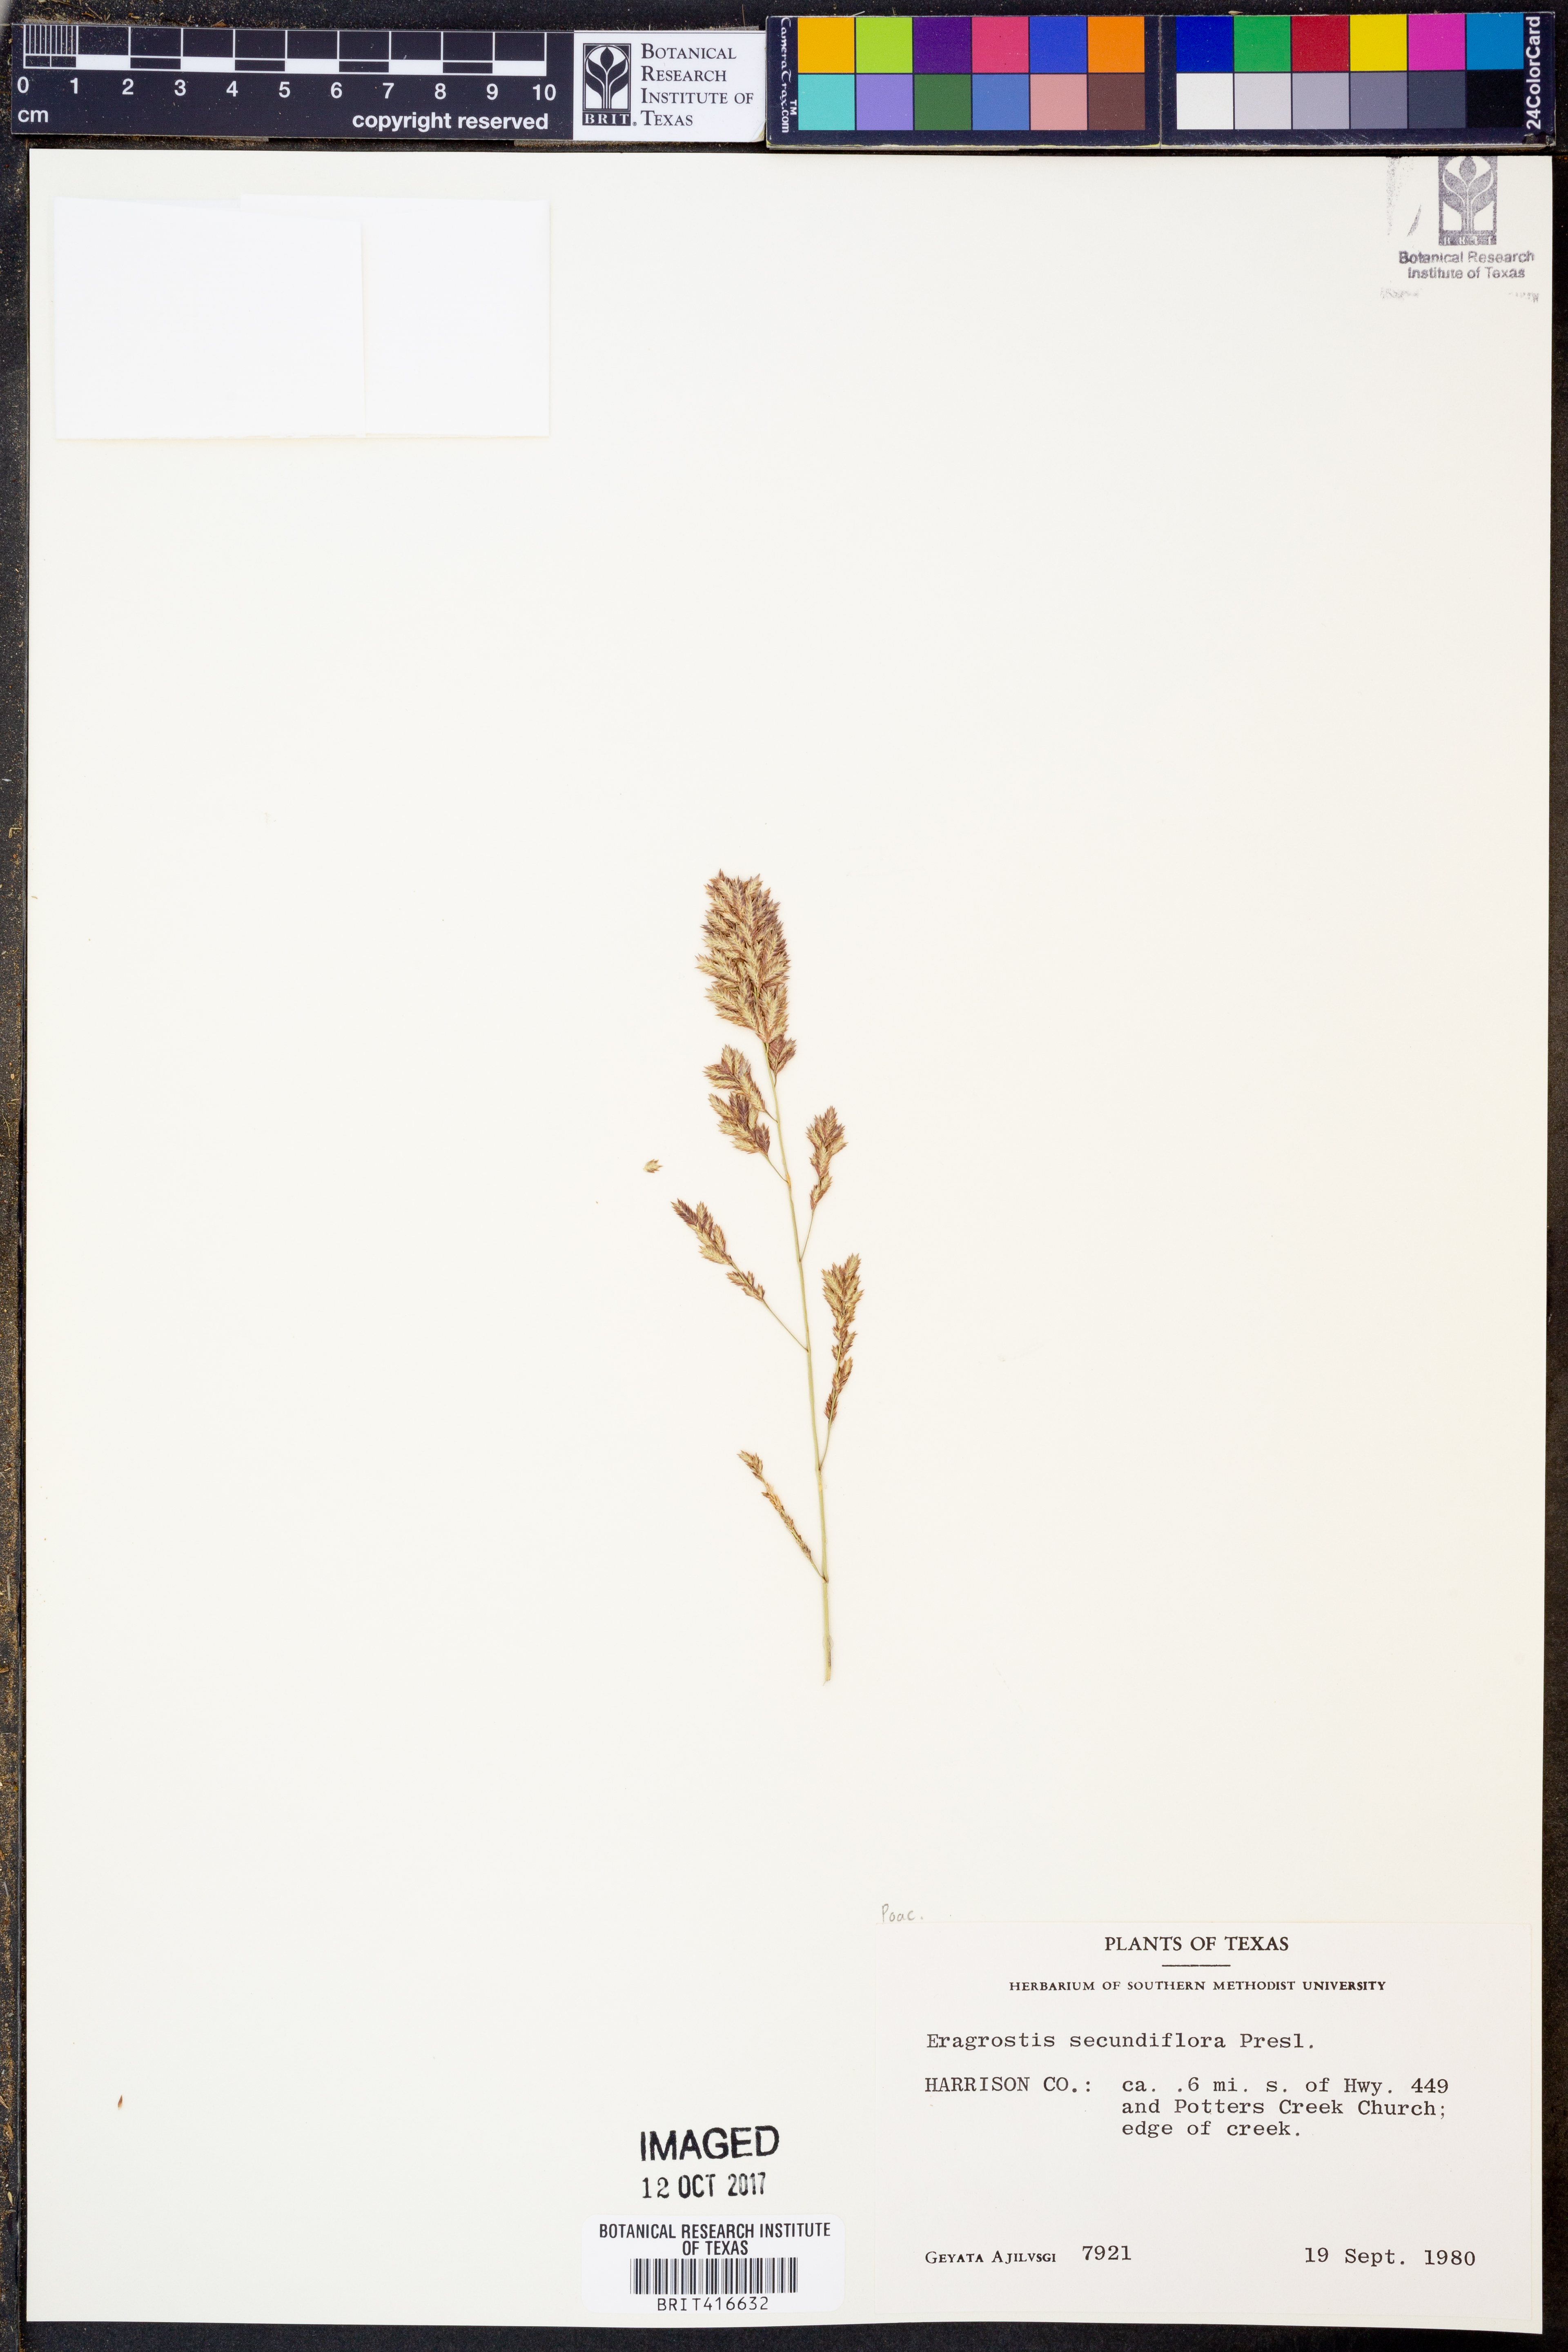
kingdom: Plantae
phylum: Tracheophyta
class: Liliopsida
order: Poales
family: Poaceae
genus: Eragrostis
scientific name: Eragrostis secundiflora
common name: Red love grass
